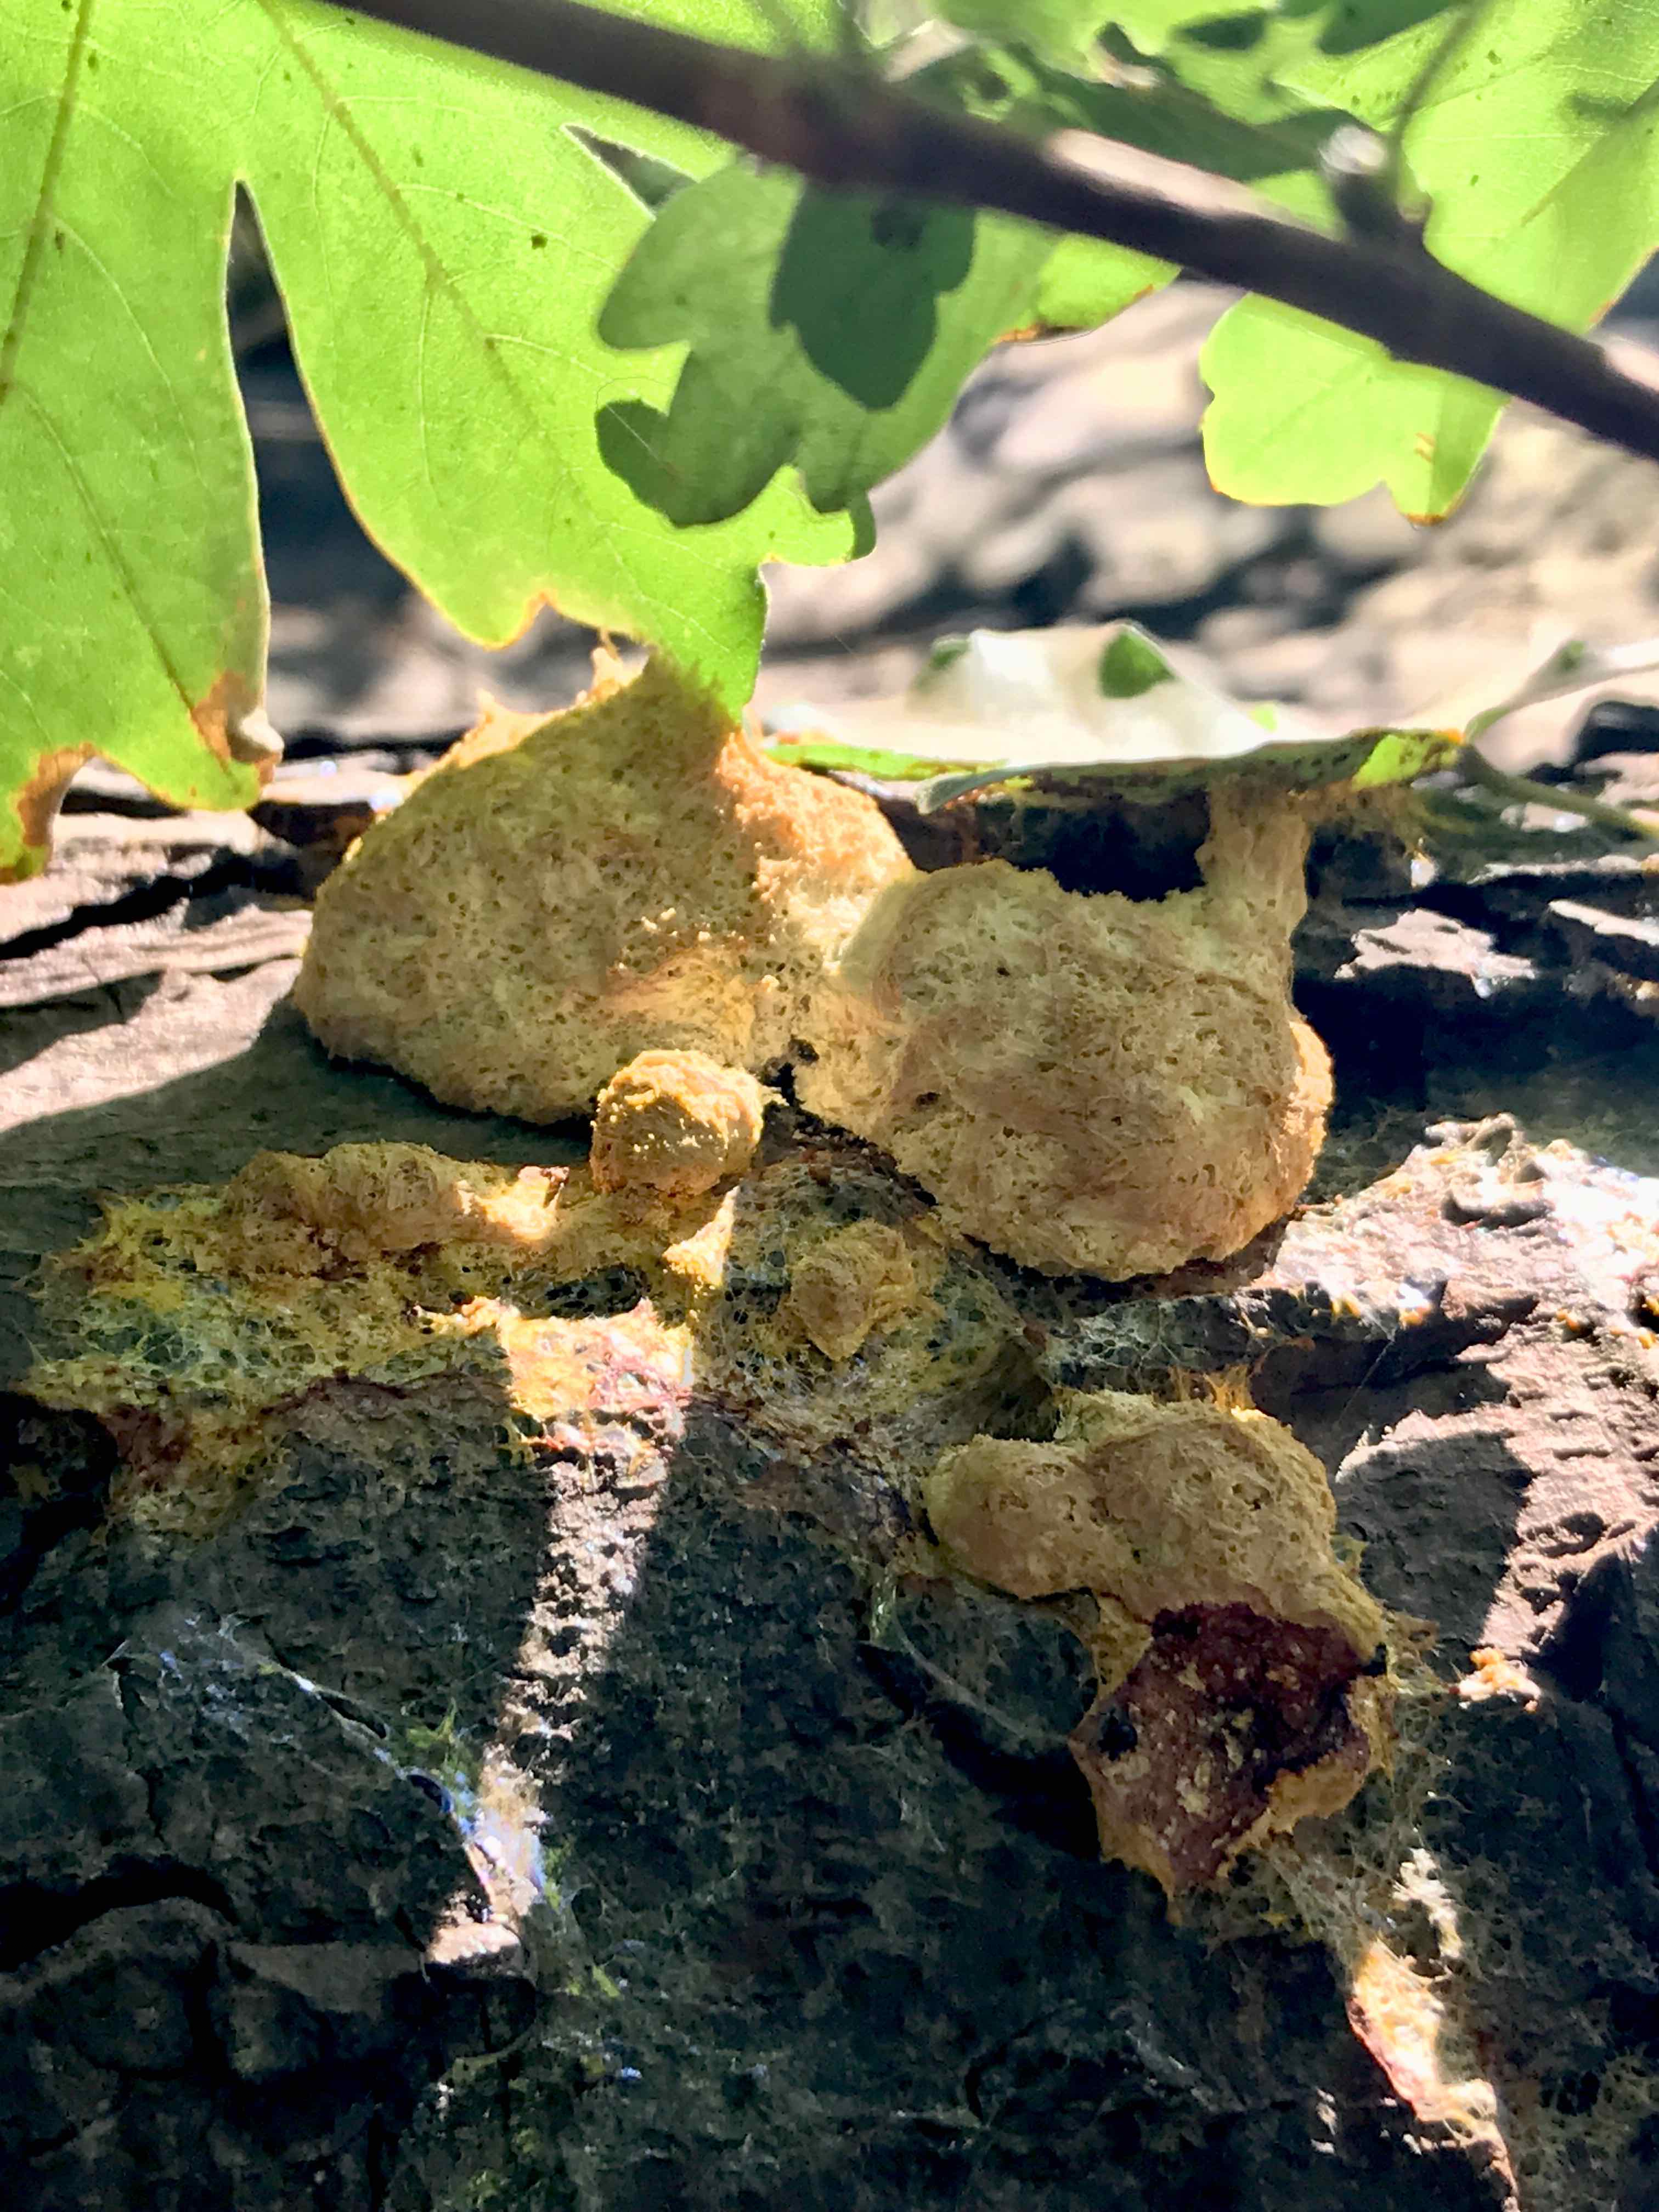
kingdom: Protozoa
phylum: Mycetozoa
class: Myxomycetes
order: Physarales
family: Physaraceae
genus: Fuligo
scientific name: Fuligo septica
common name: gul troldsmør
